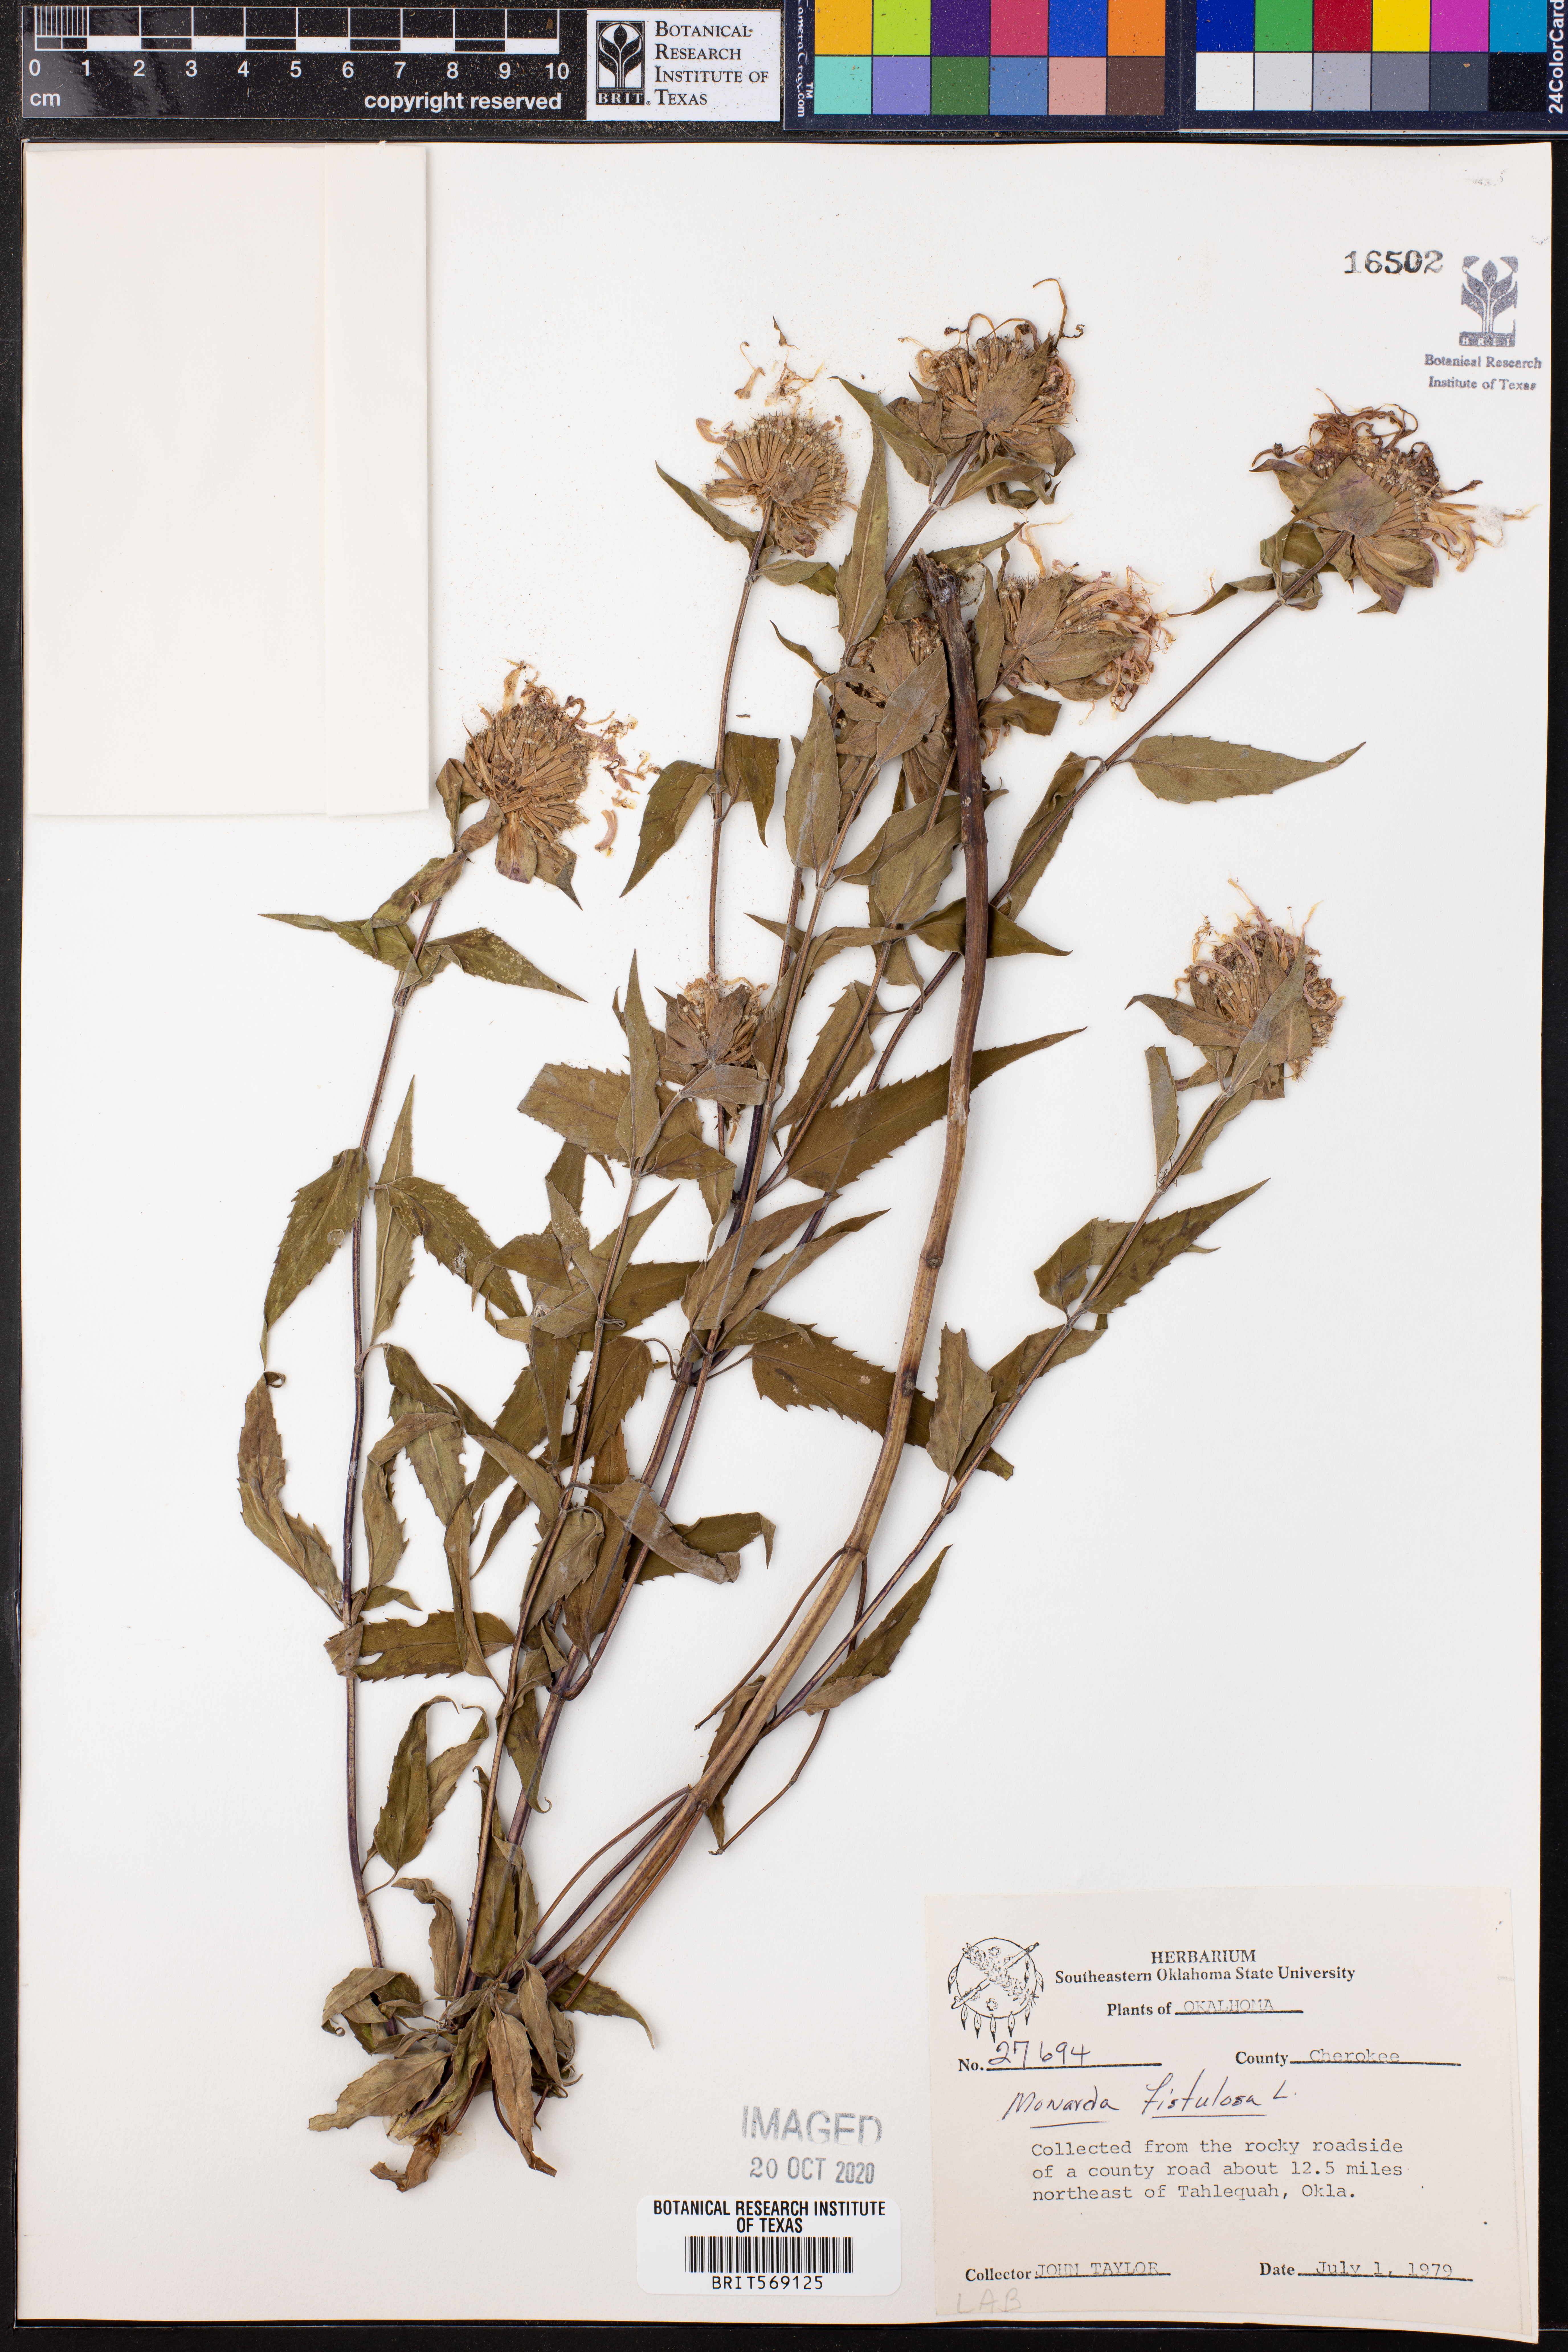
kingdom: Plantae
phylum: Tracheophyta
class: Magnoliopsida
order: Lamiales
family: Lamiaceae
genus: Monarda
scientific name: Monarda fistulosa
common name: Purple beebalm
